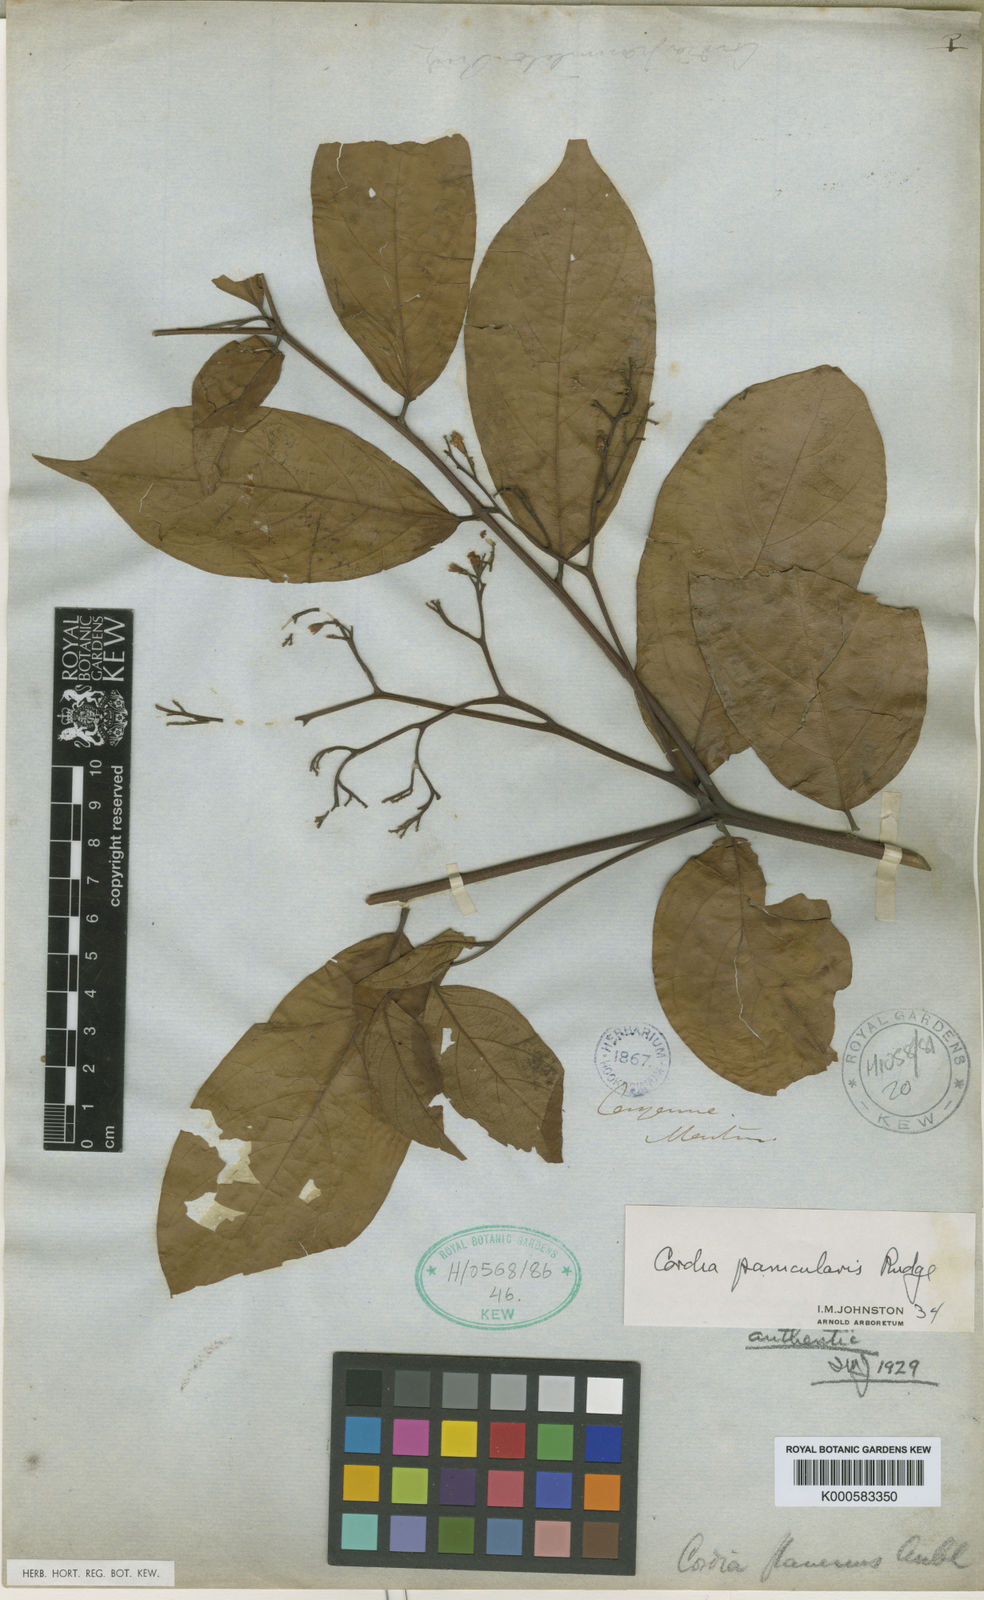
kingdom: Plantae
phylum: Tracheophyta
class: Magnoliopsida
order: Boraginales
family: Cordiaceae
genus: Cordia
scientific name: Cordia panicularis
